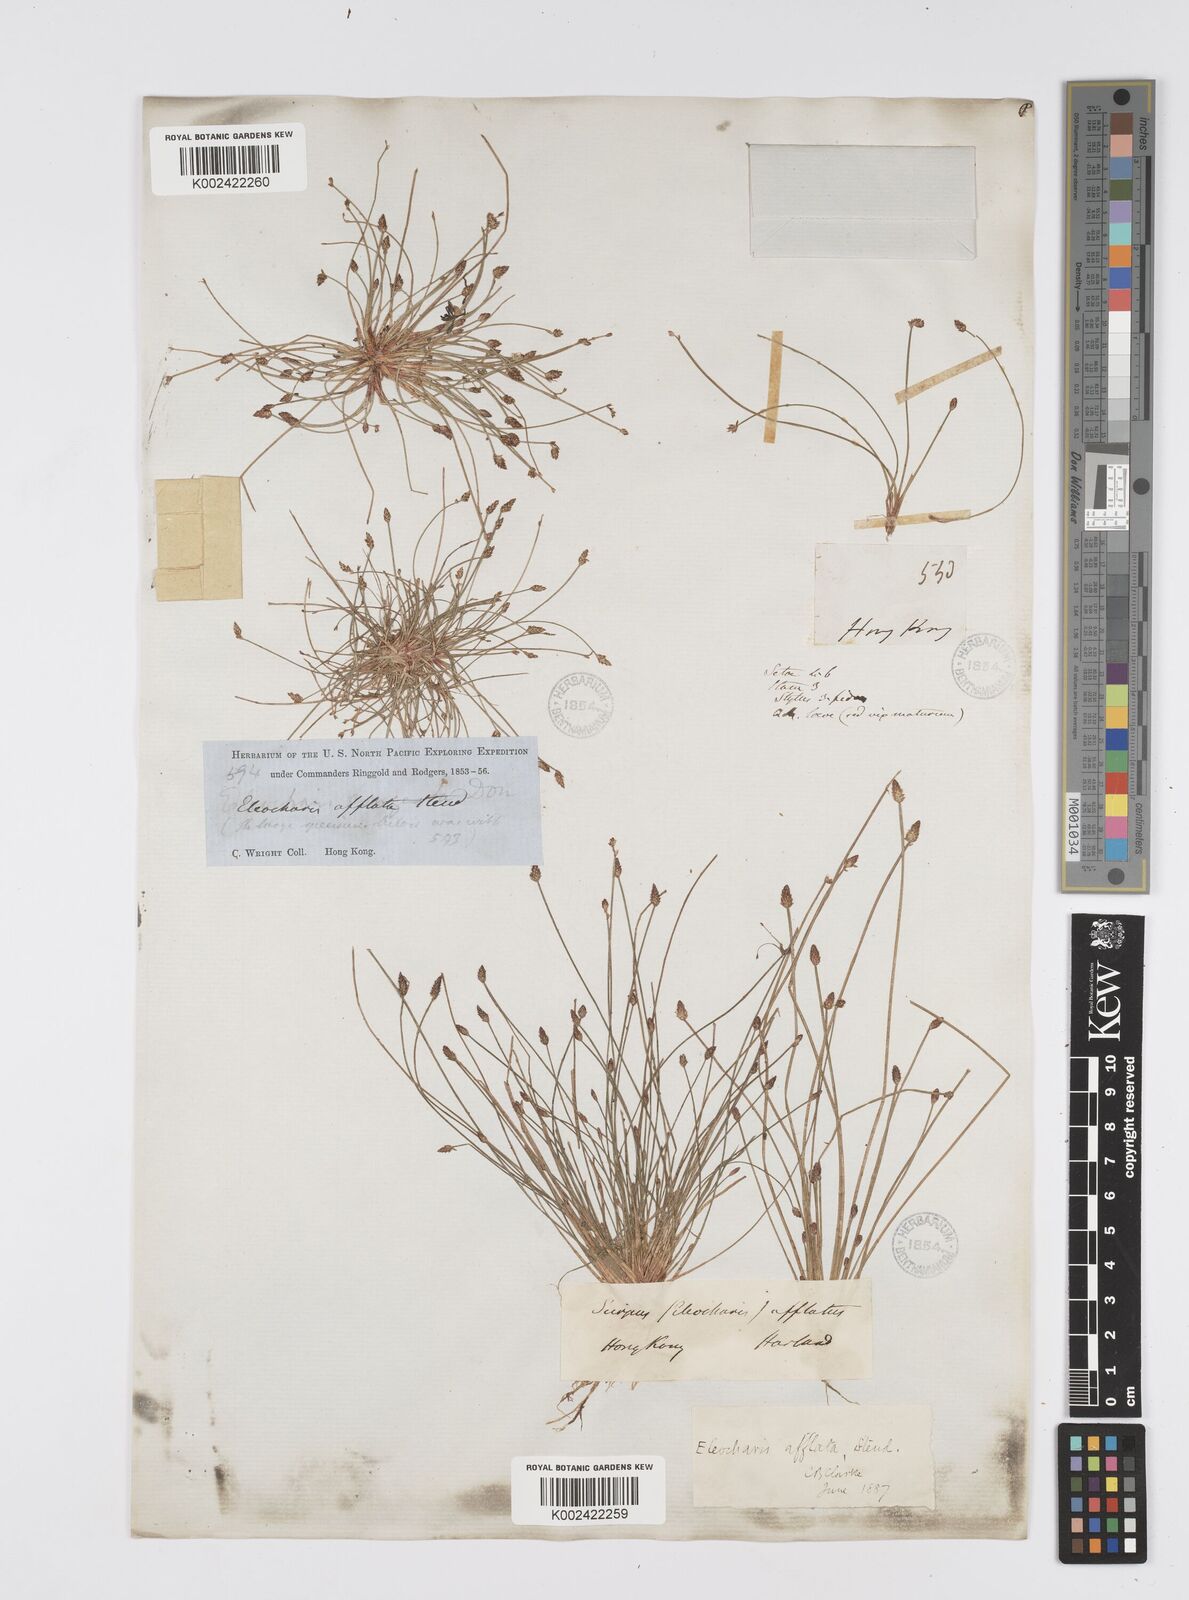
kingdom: Plantae
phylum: Tracheophyta
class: Liliopsida
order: Poales
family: Cyperaceae
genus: Eleocharis
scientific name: Eleocharis pellucida
